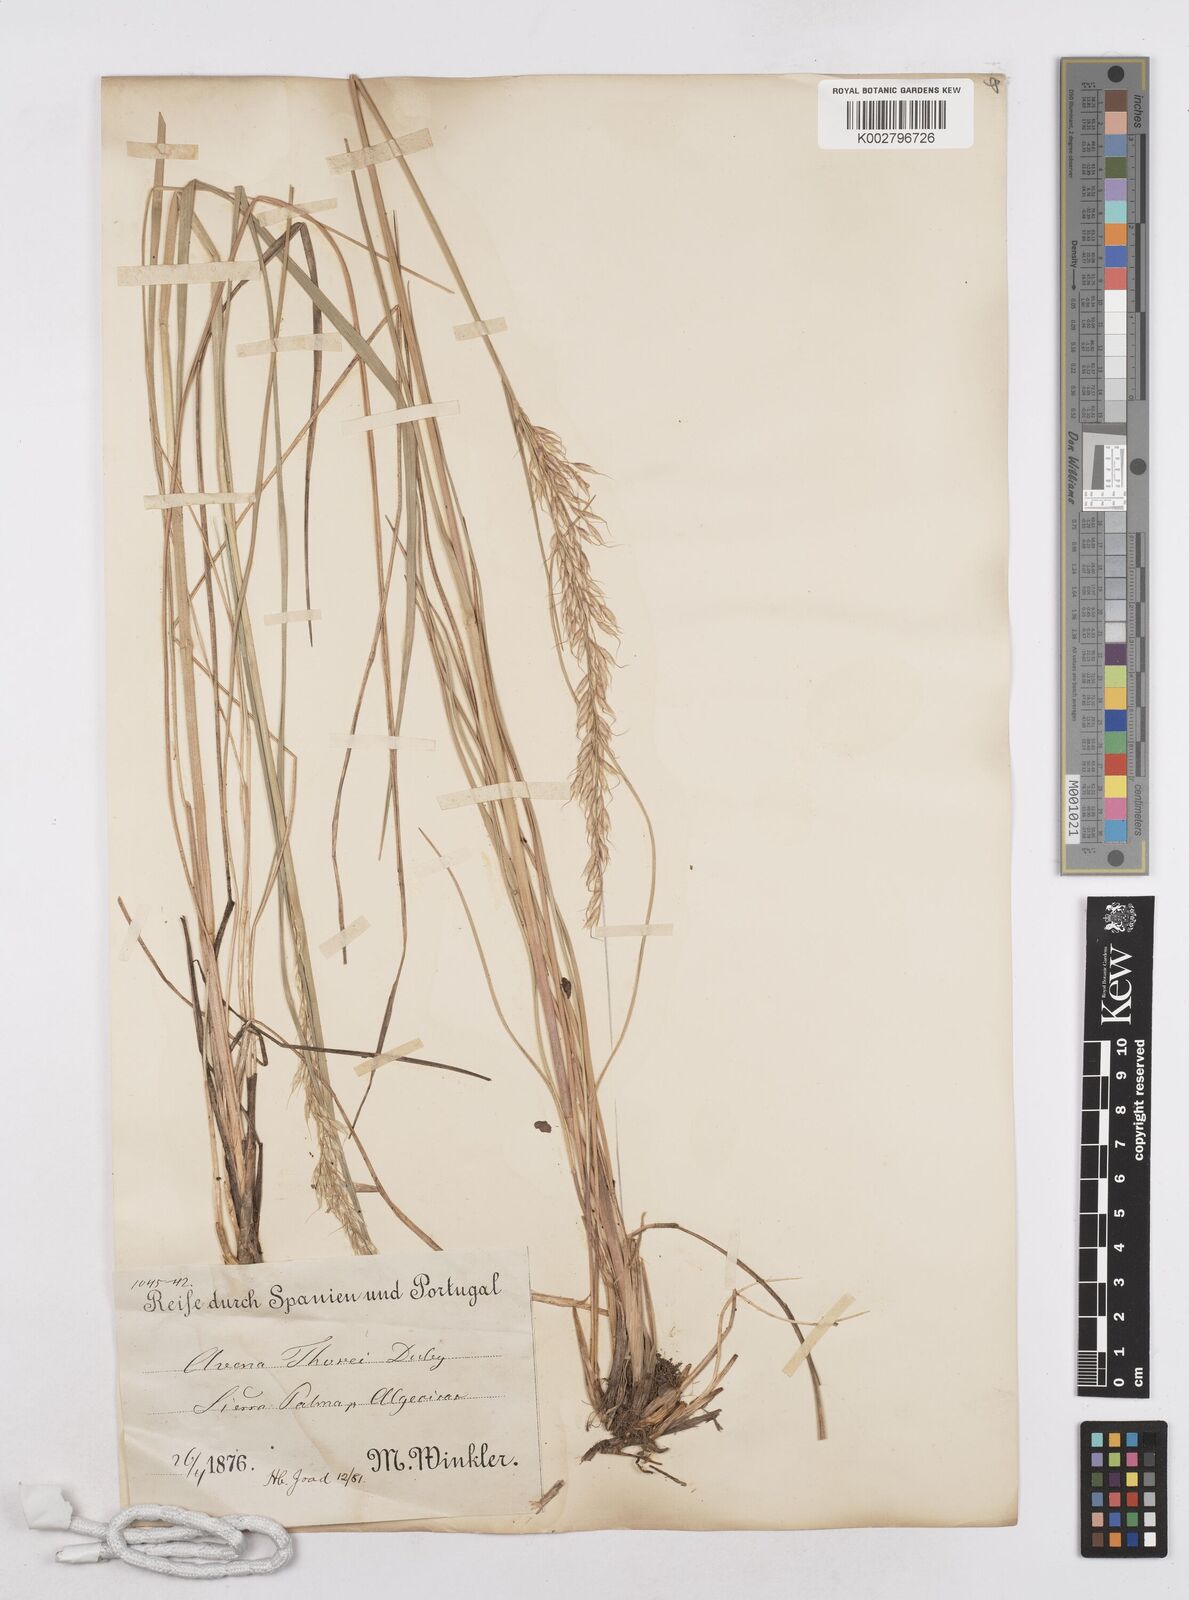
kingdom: Plantae
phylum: Tracheophyta
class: Liliopsida
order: Poales
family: Poaceae
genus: Arrhenatherum
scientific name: Arrhenatherum longifolium
